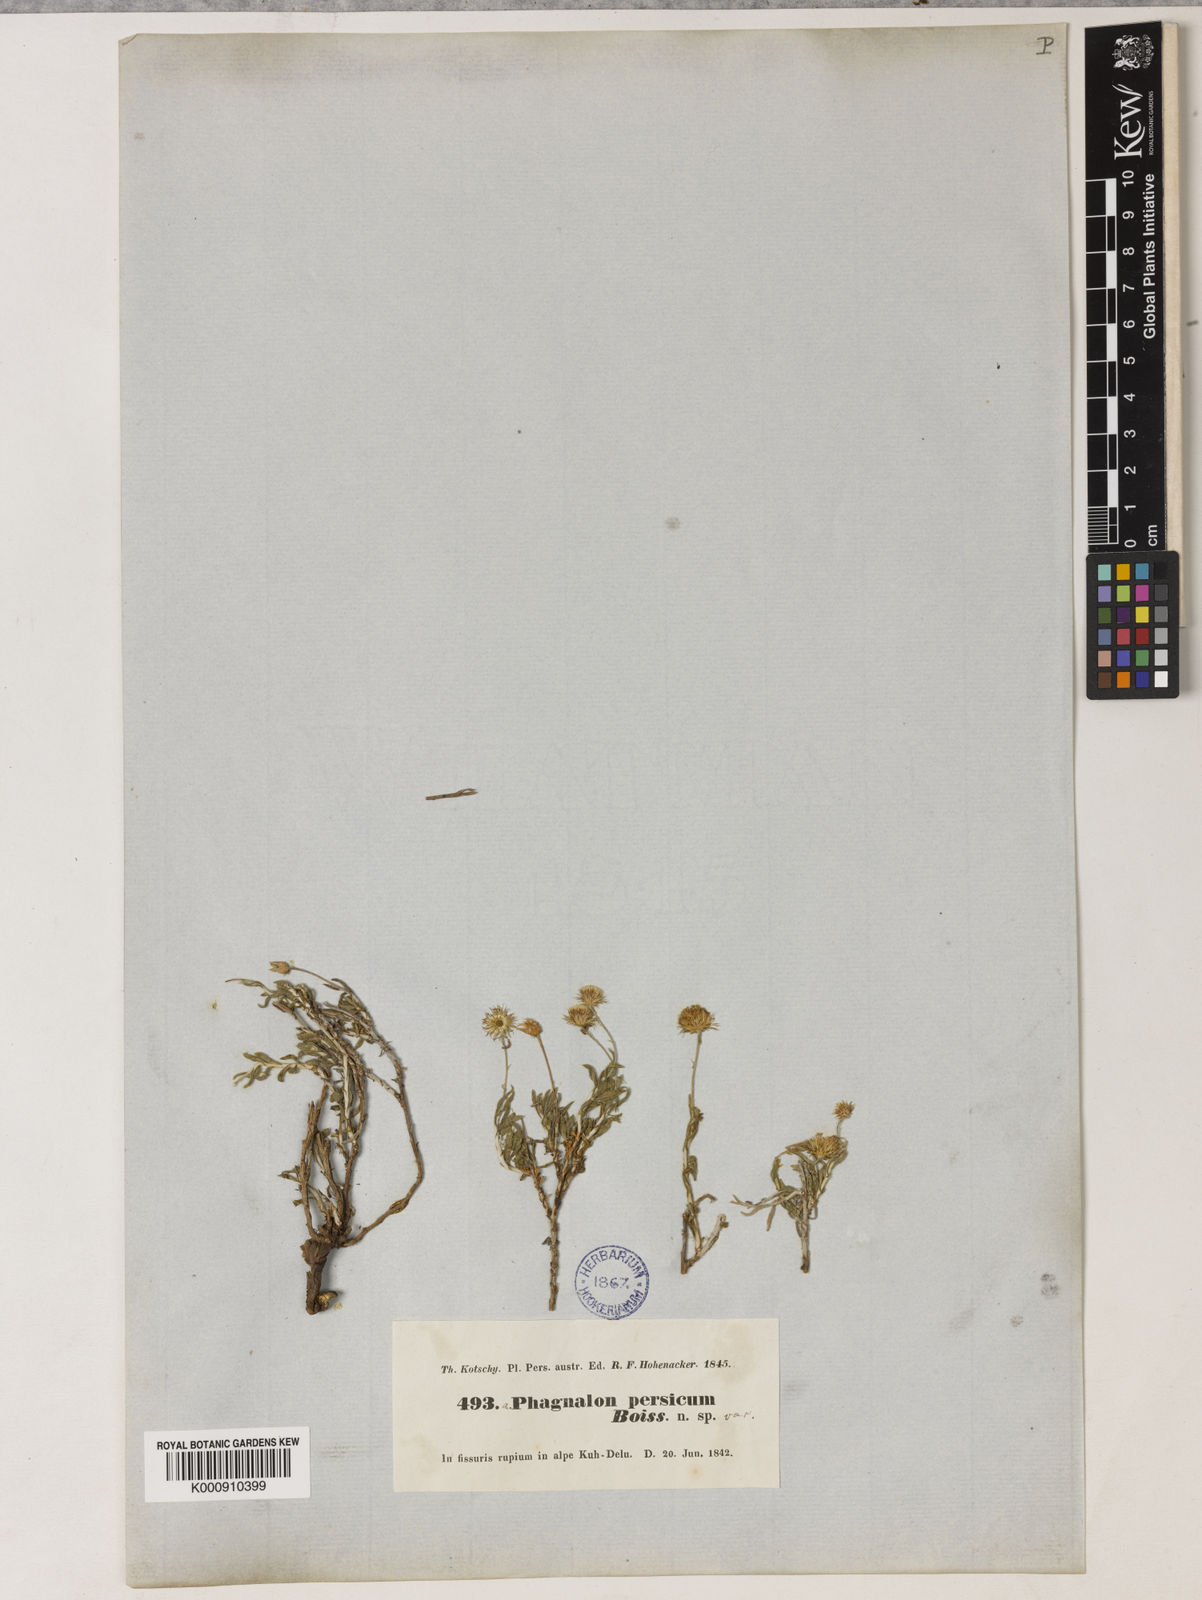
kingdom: Plantae
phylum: Tracheophyta
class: Magnoliopsida
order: Asterales
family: Asteraceae
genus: Phagnalon
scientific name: Phagnalon persicum
